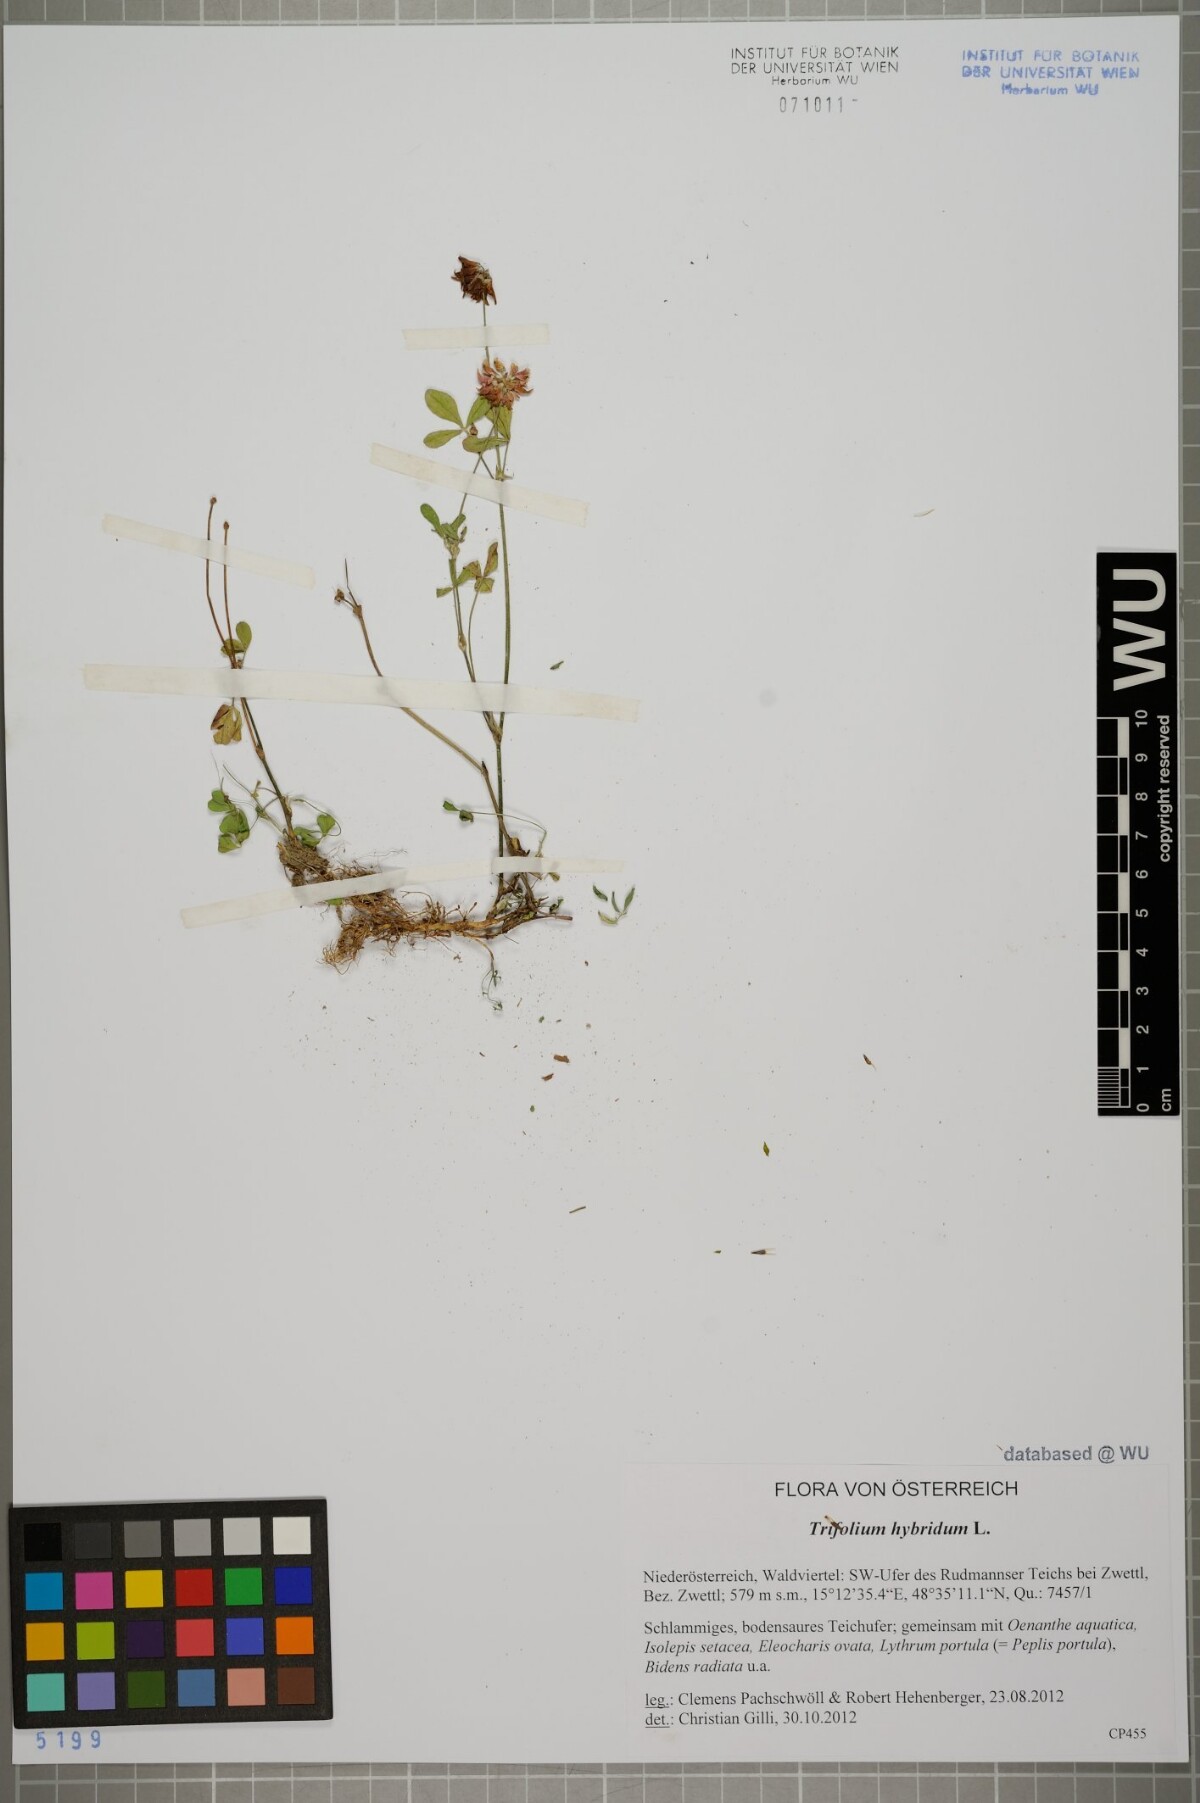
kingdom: Plantae
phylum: Tracheophyta
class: Magnoliopsida
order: Fabales
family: Fabaceae
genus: Trifolium
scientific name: Trifolium hybridum
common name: Alsike clover
